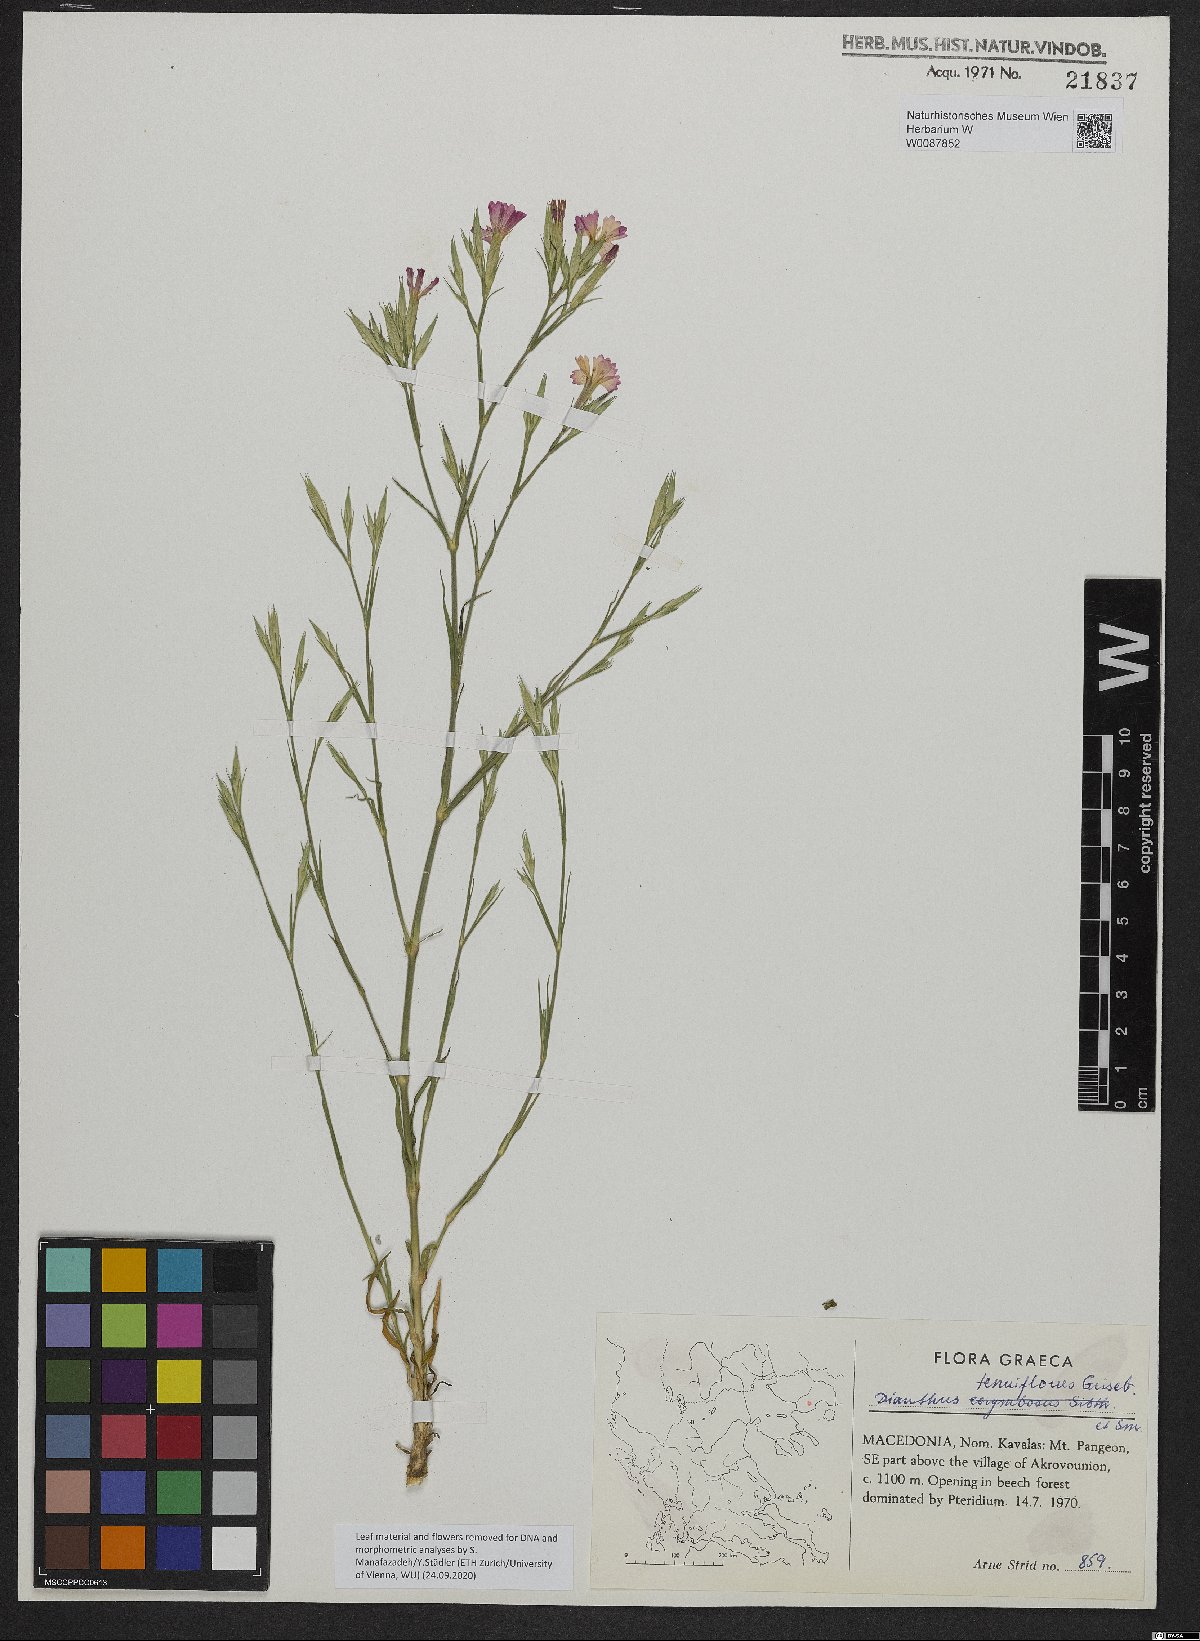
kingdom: Plantae
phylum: Tracheophyta
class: Magnoliopsida
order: Caryophyllales
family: Caryophyllaceae
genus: Dianthus
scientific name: Dianthus tenuiflorus
